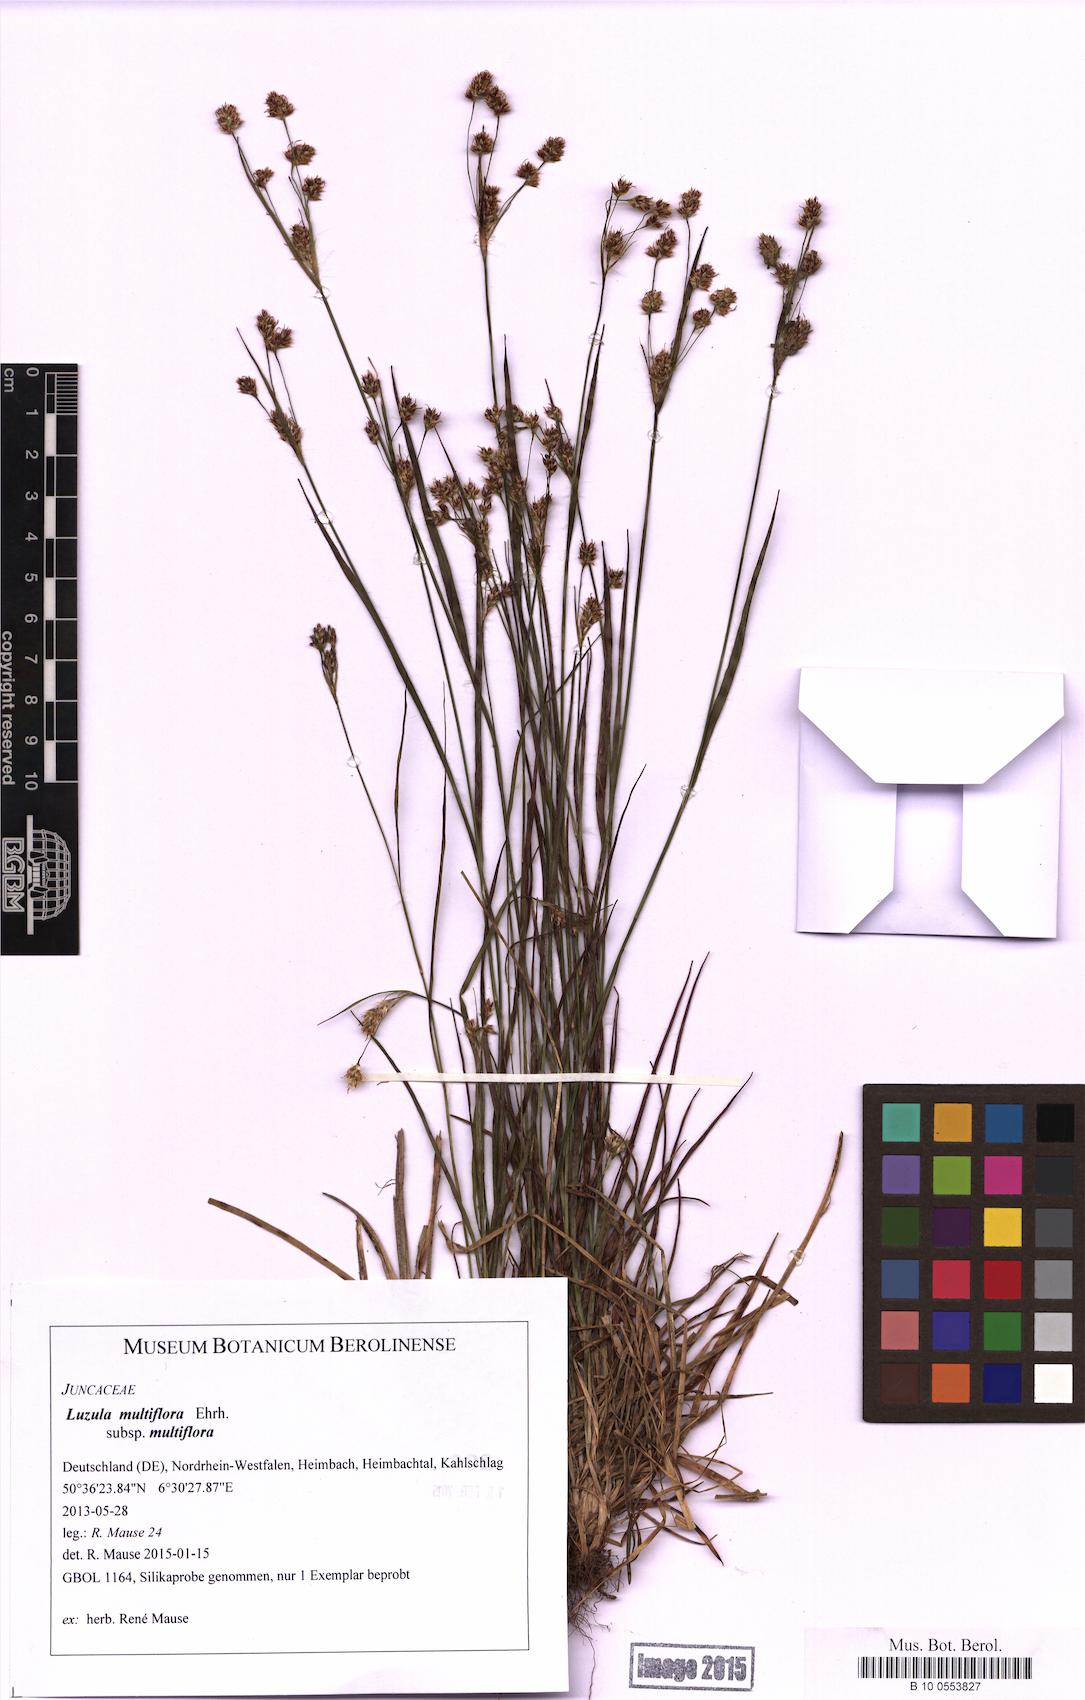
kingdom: Plantae
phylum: Tracheophyta
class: Liliopsida
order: Poales
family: Juncaceae
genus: Luzula
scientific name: Luzula multiflora
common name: Heath wood-rush
